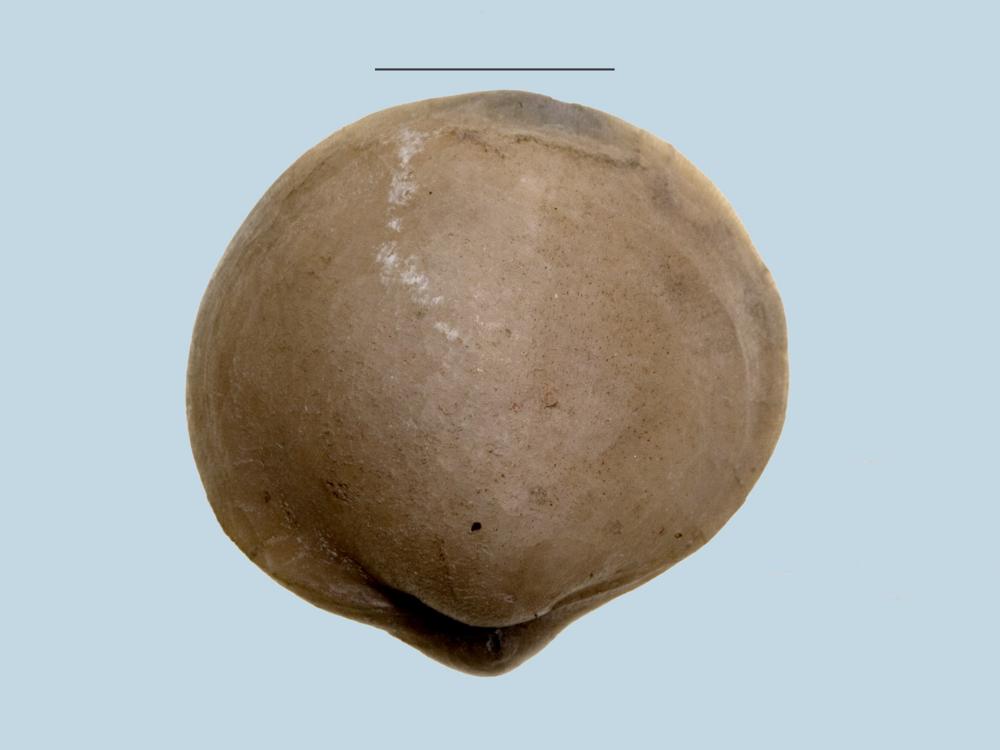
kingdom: Animalia
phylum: Brachiopoda
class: Rhynchonellata
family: Porambonitidae
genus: Porambonites
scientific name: Porambonites
